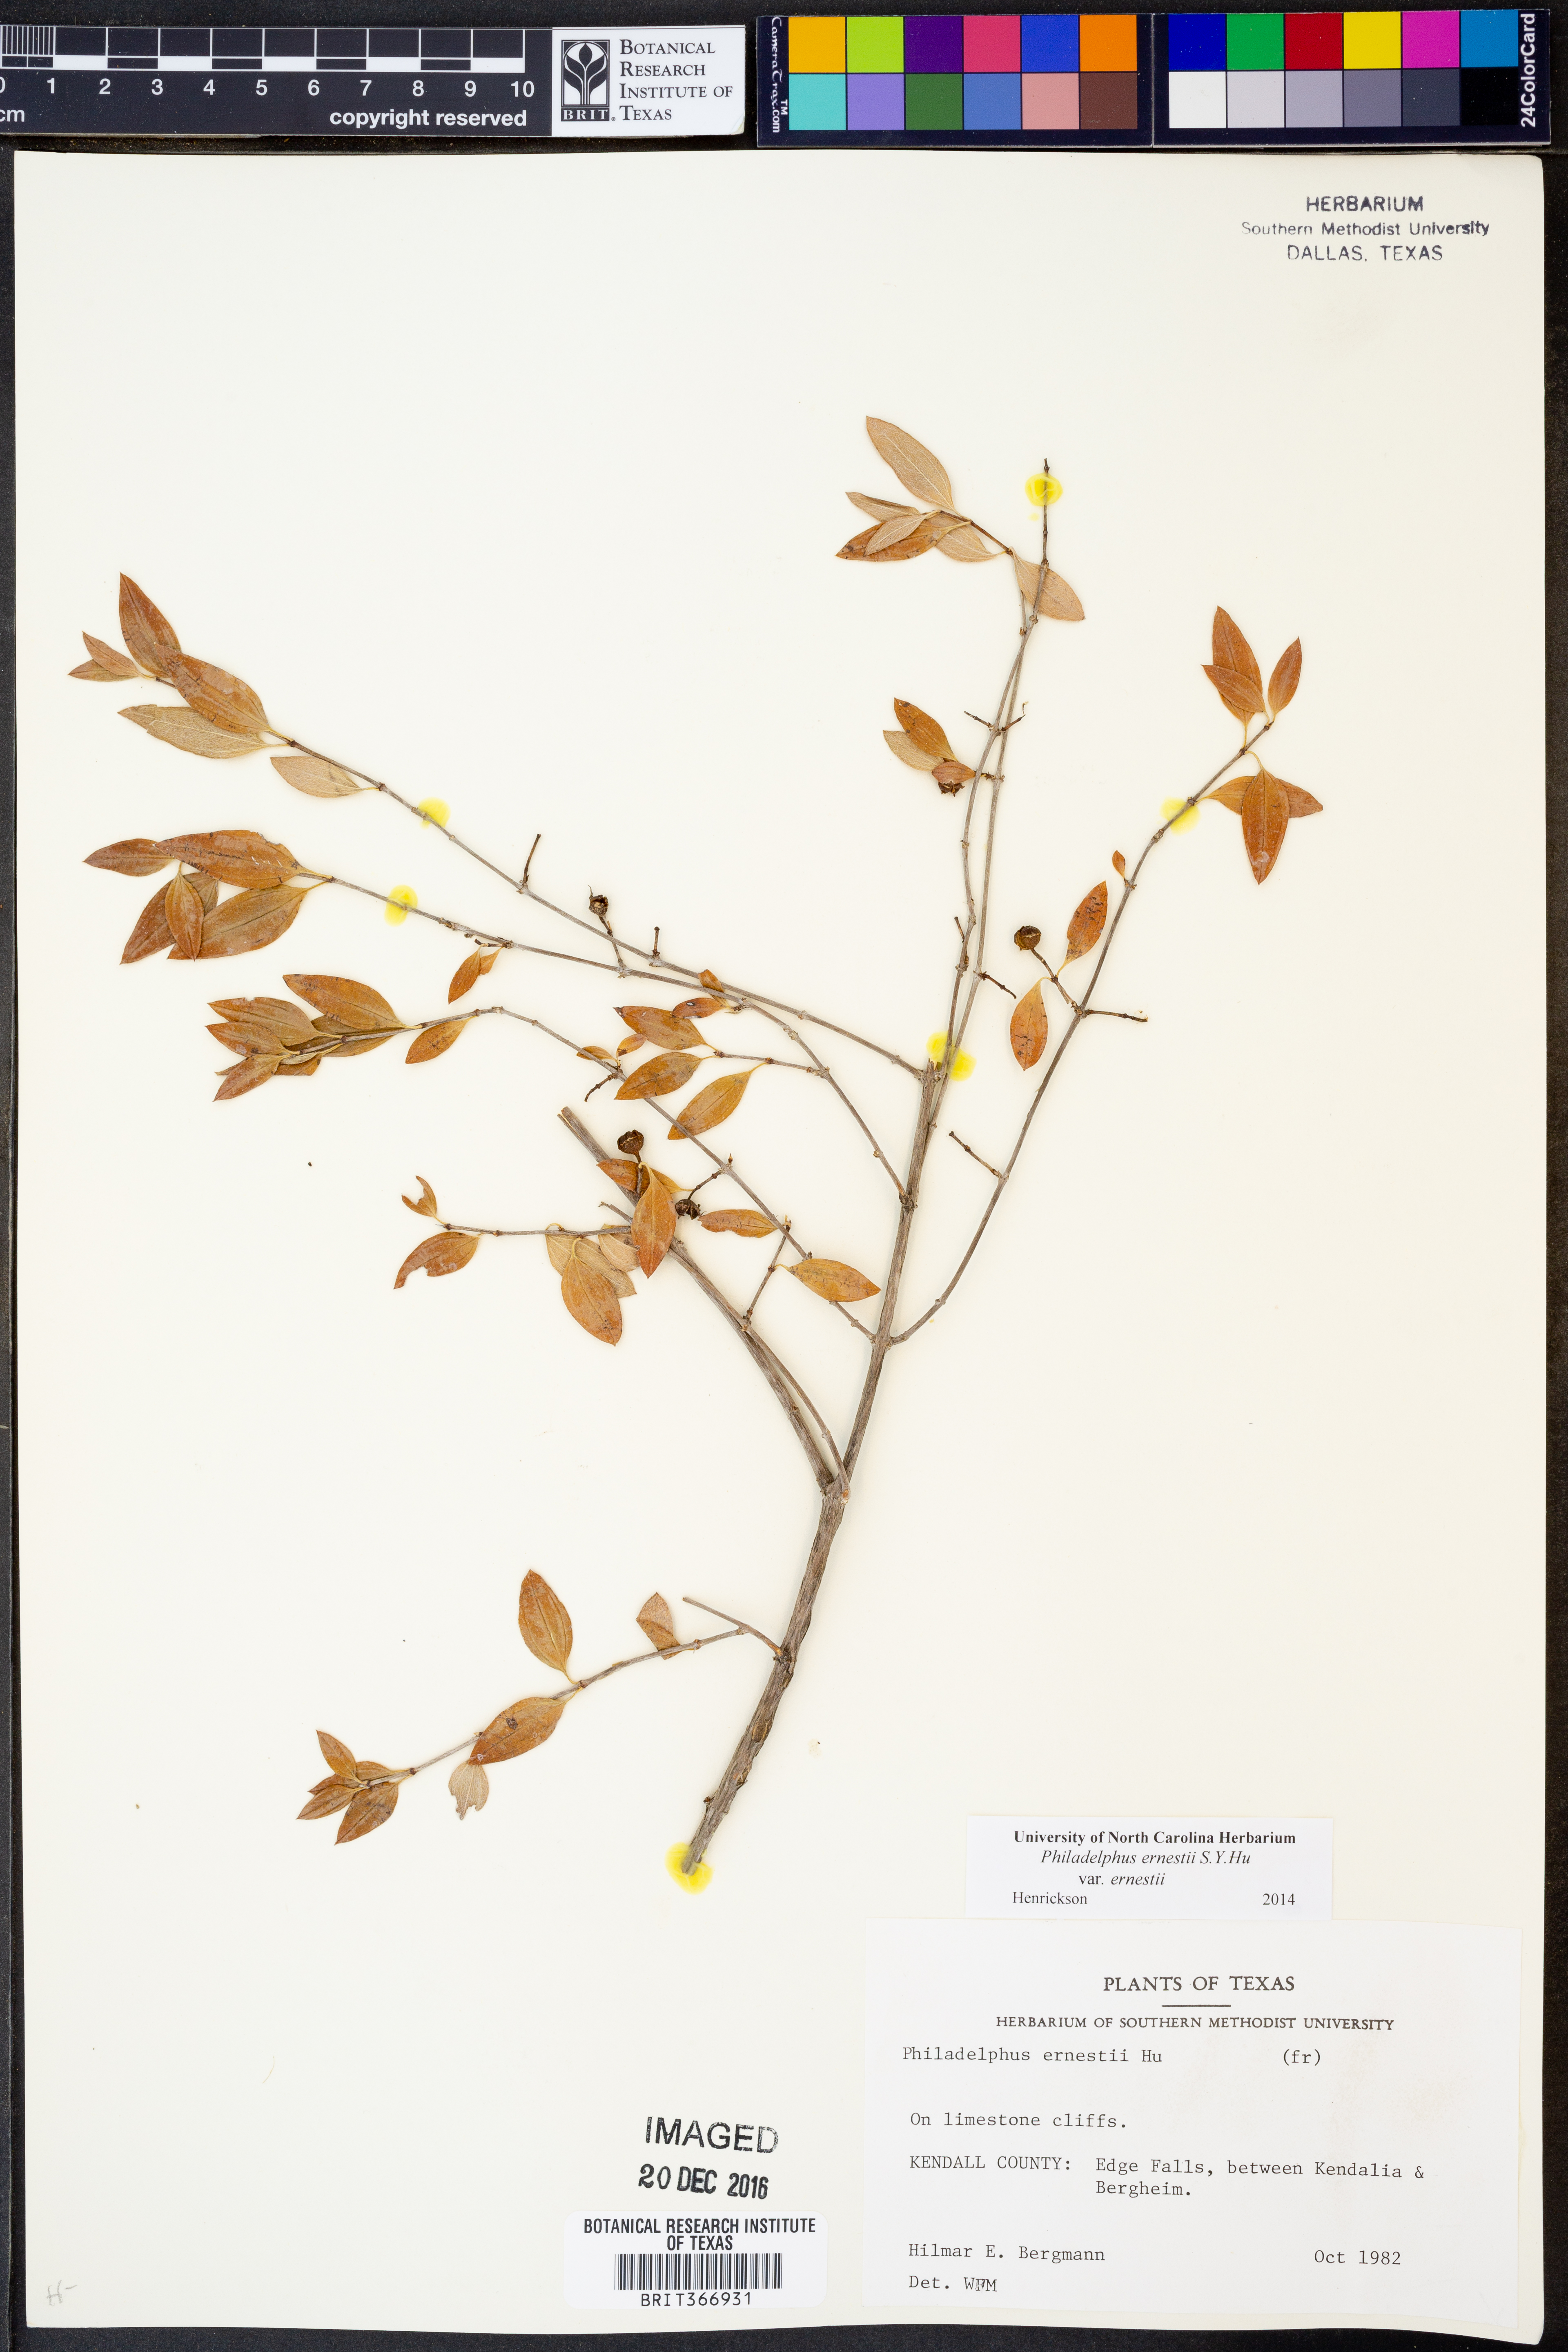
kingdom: Plantae
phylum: Tracheophyta
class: Magnoliopsida
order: Cornales
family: Hydrangeaceae
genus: Philadelphus
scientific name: Philadelphus texensis
